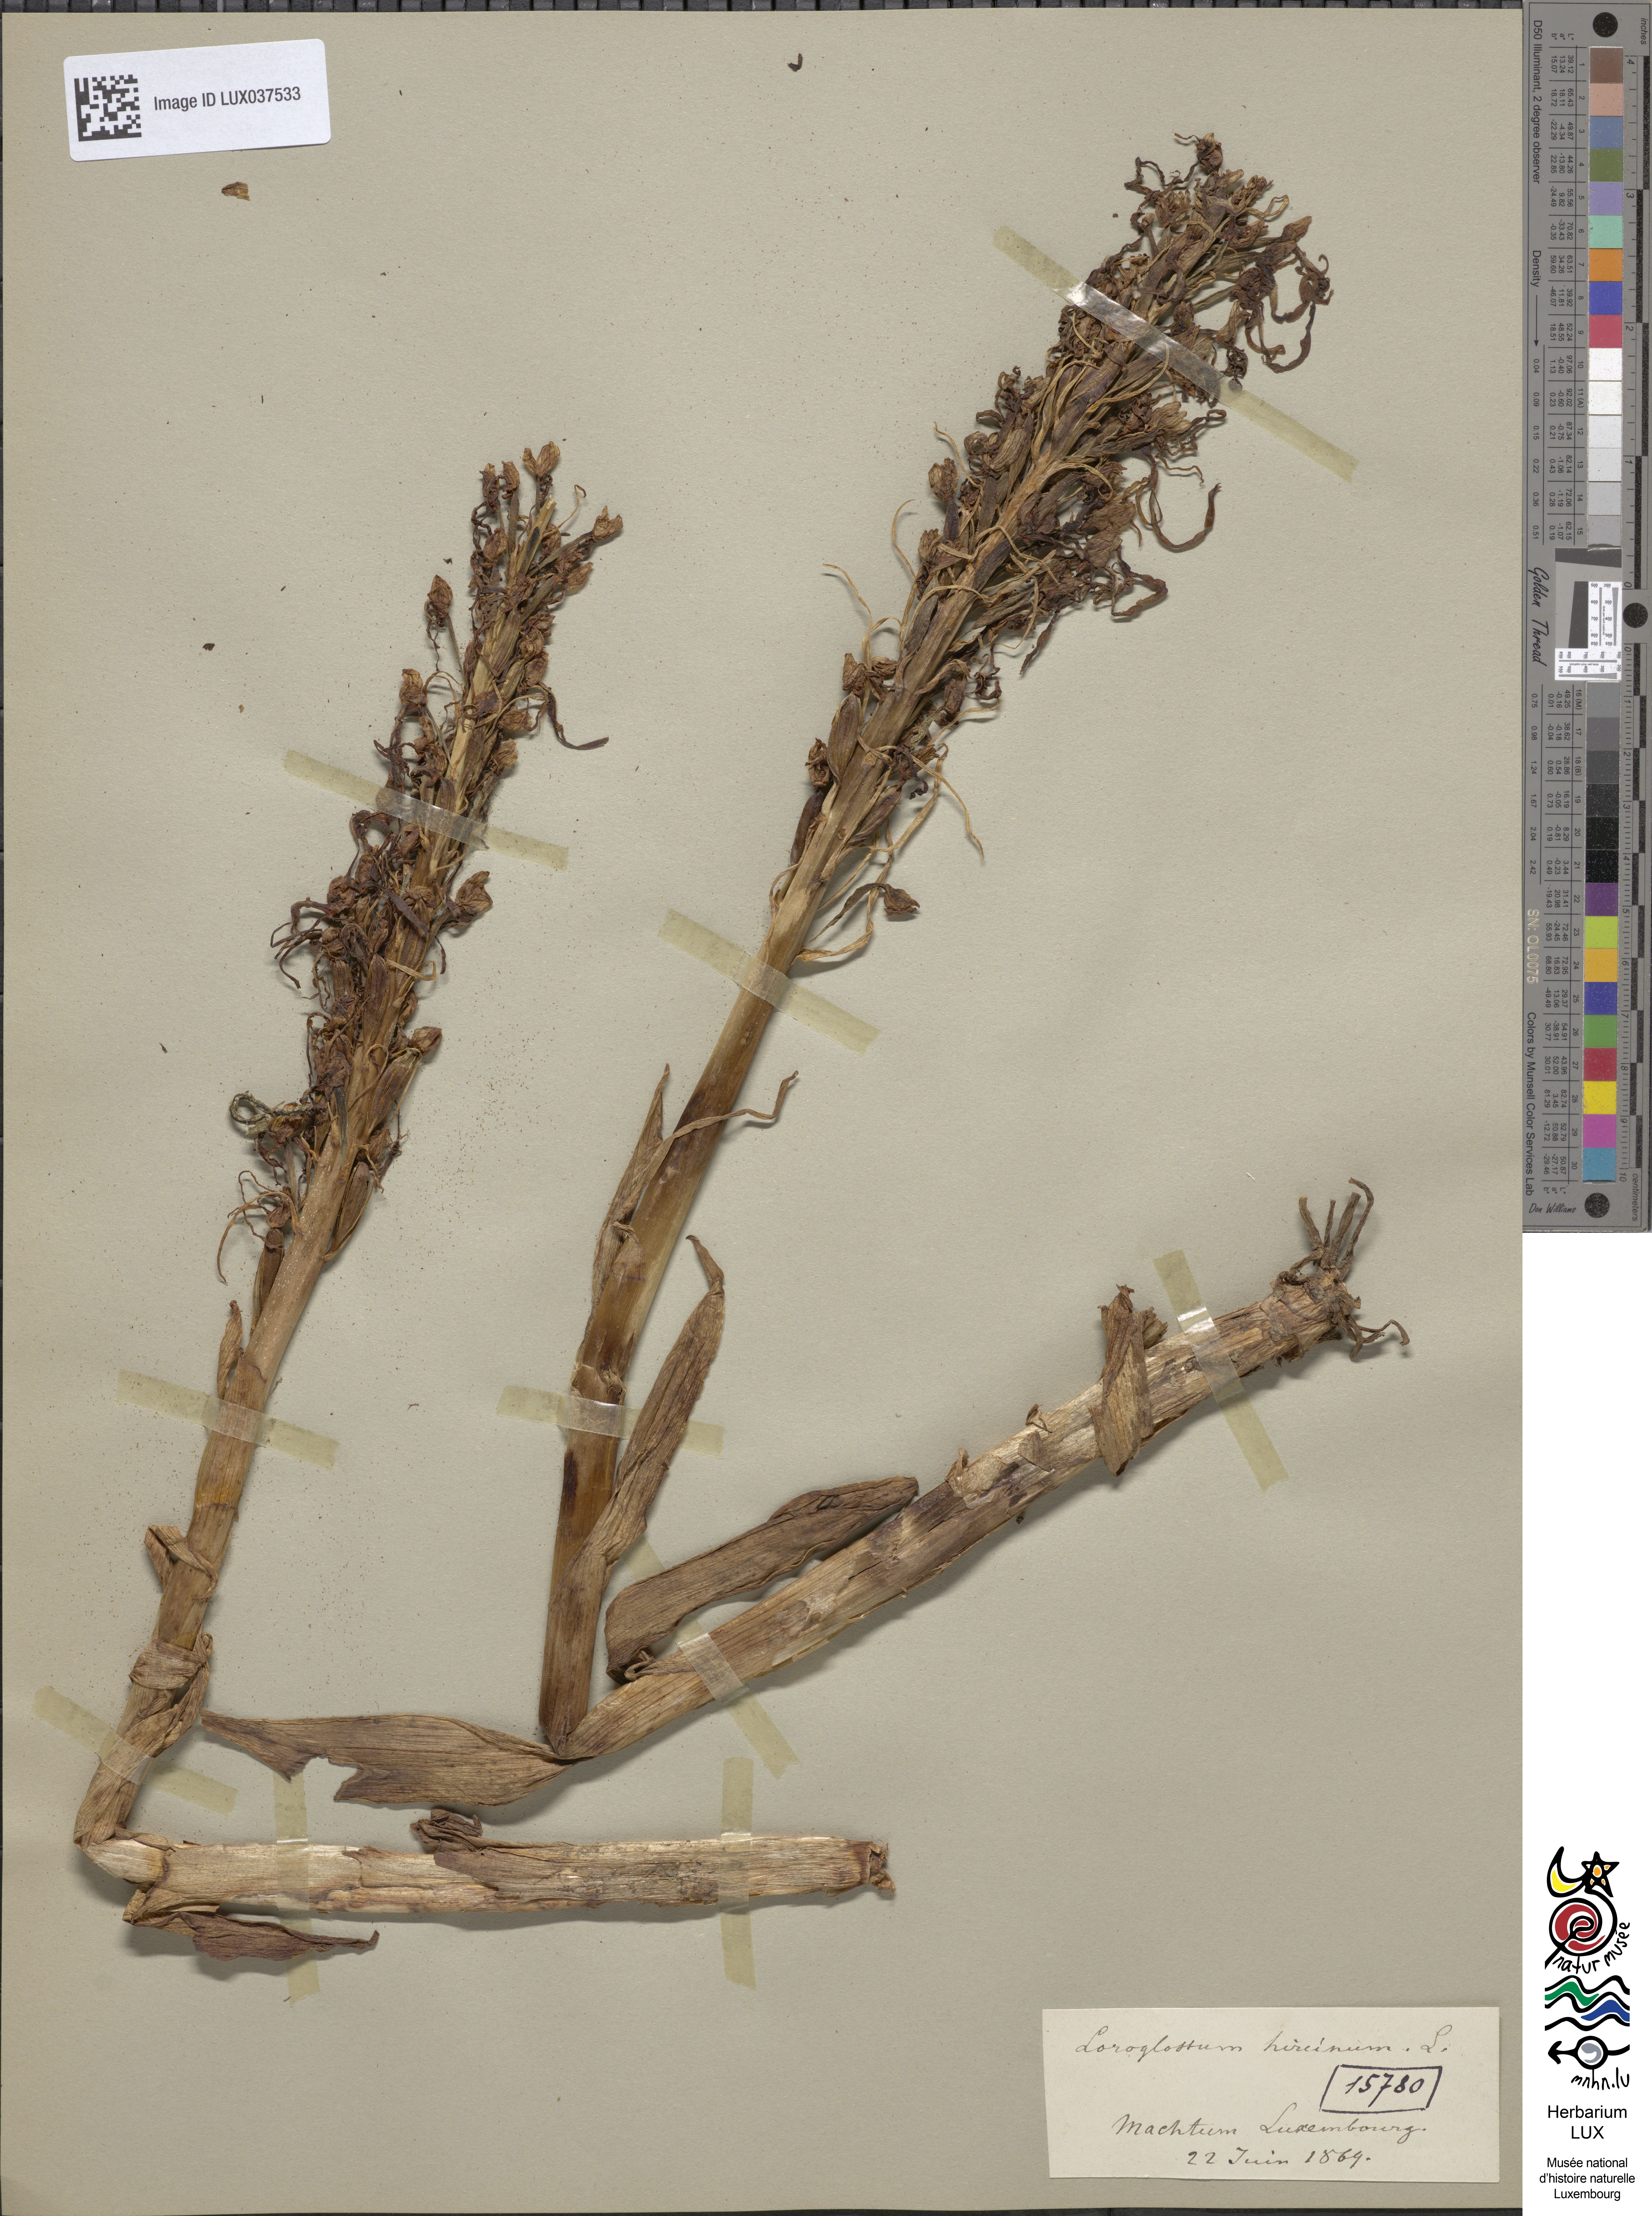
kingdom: Plantae
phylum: Tracheophyta
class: Liliopsida
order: Asparagales
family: Orchidaceae
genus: Himantoglossum
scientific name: Himantoglossum hircinum
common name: Lizard orchid
